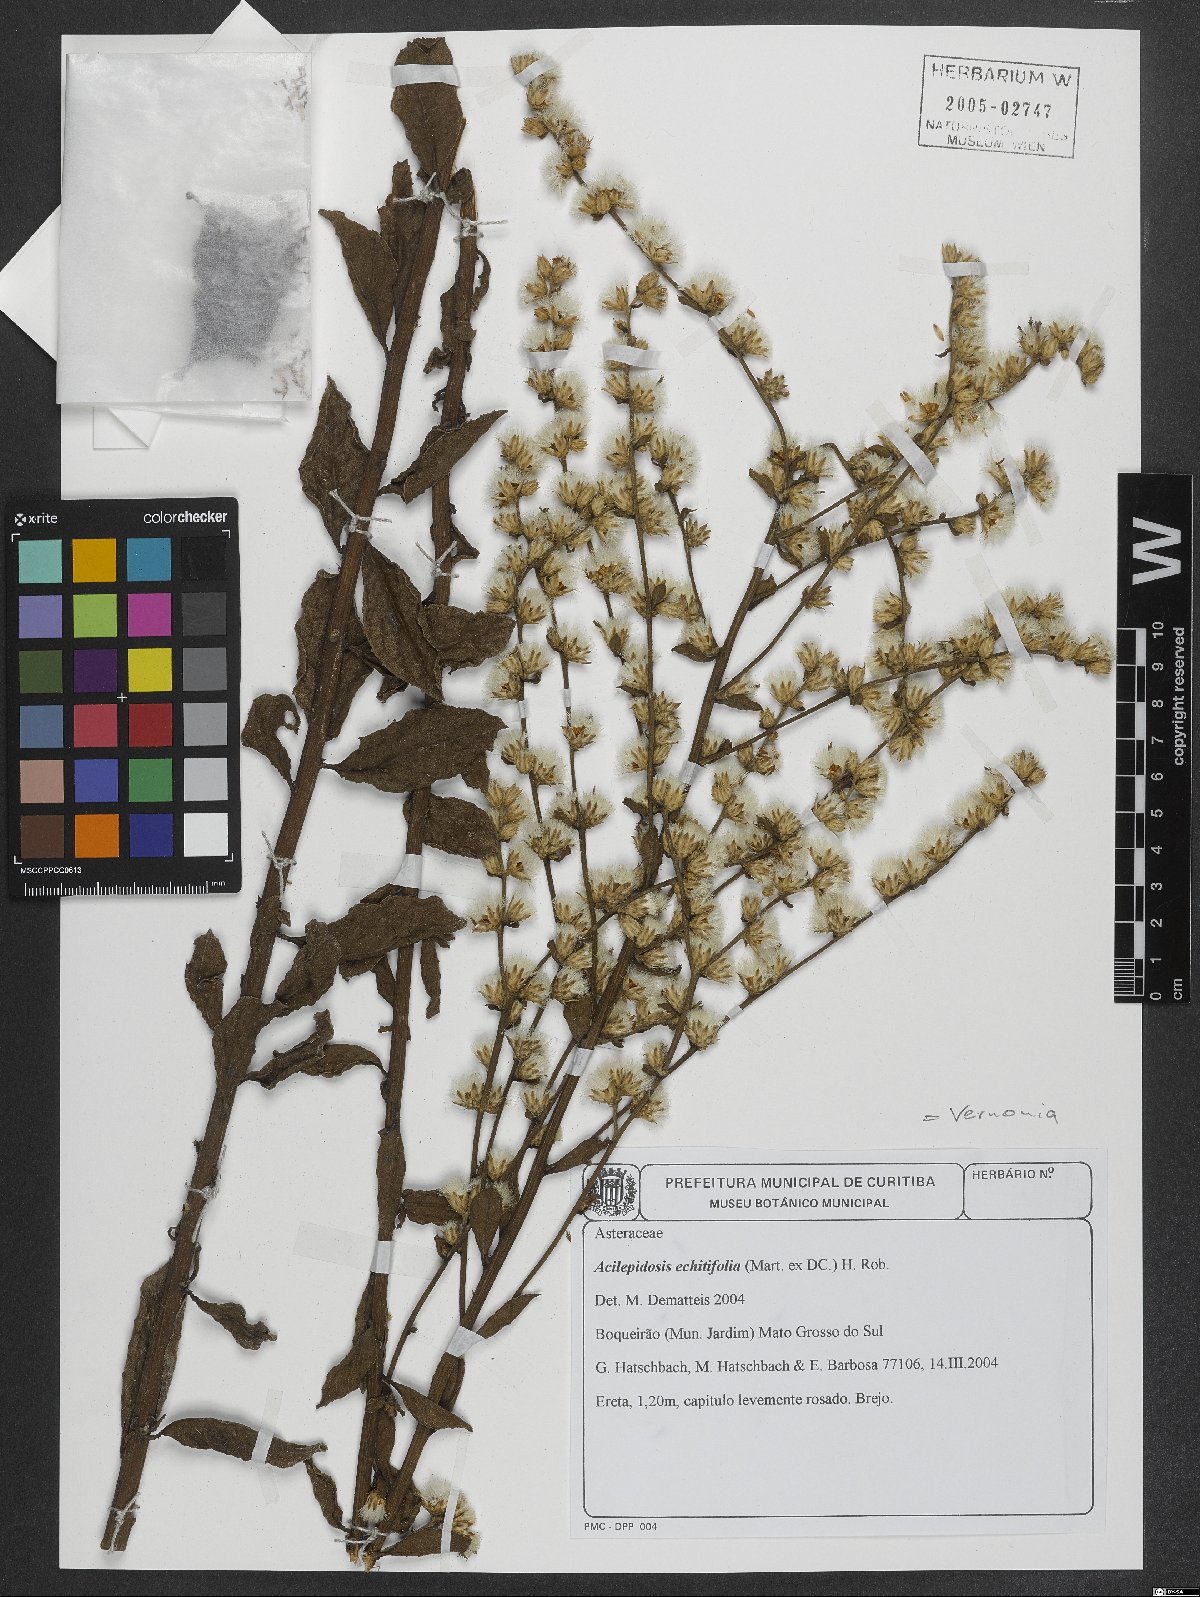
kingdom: Plantae
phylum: Tracheophyta
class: Magnoliopsida
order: Asterales
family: Asteraceae
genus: Acilepidopsis
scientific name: Acilepidopsis echitifolia
